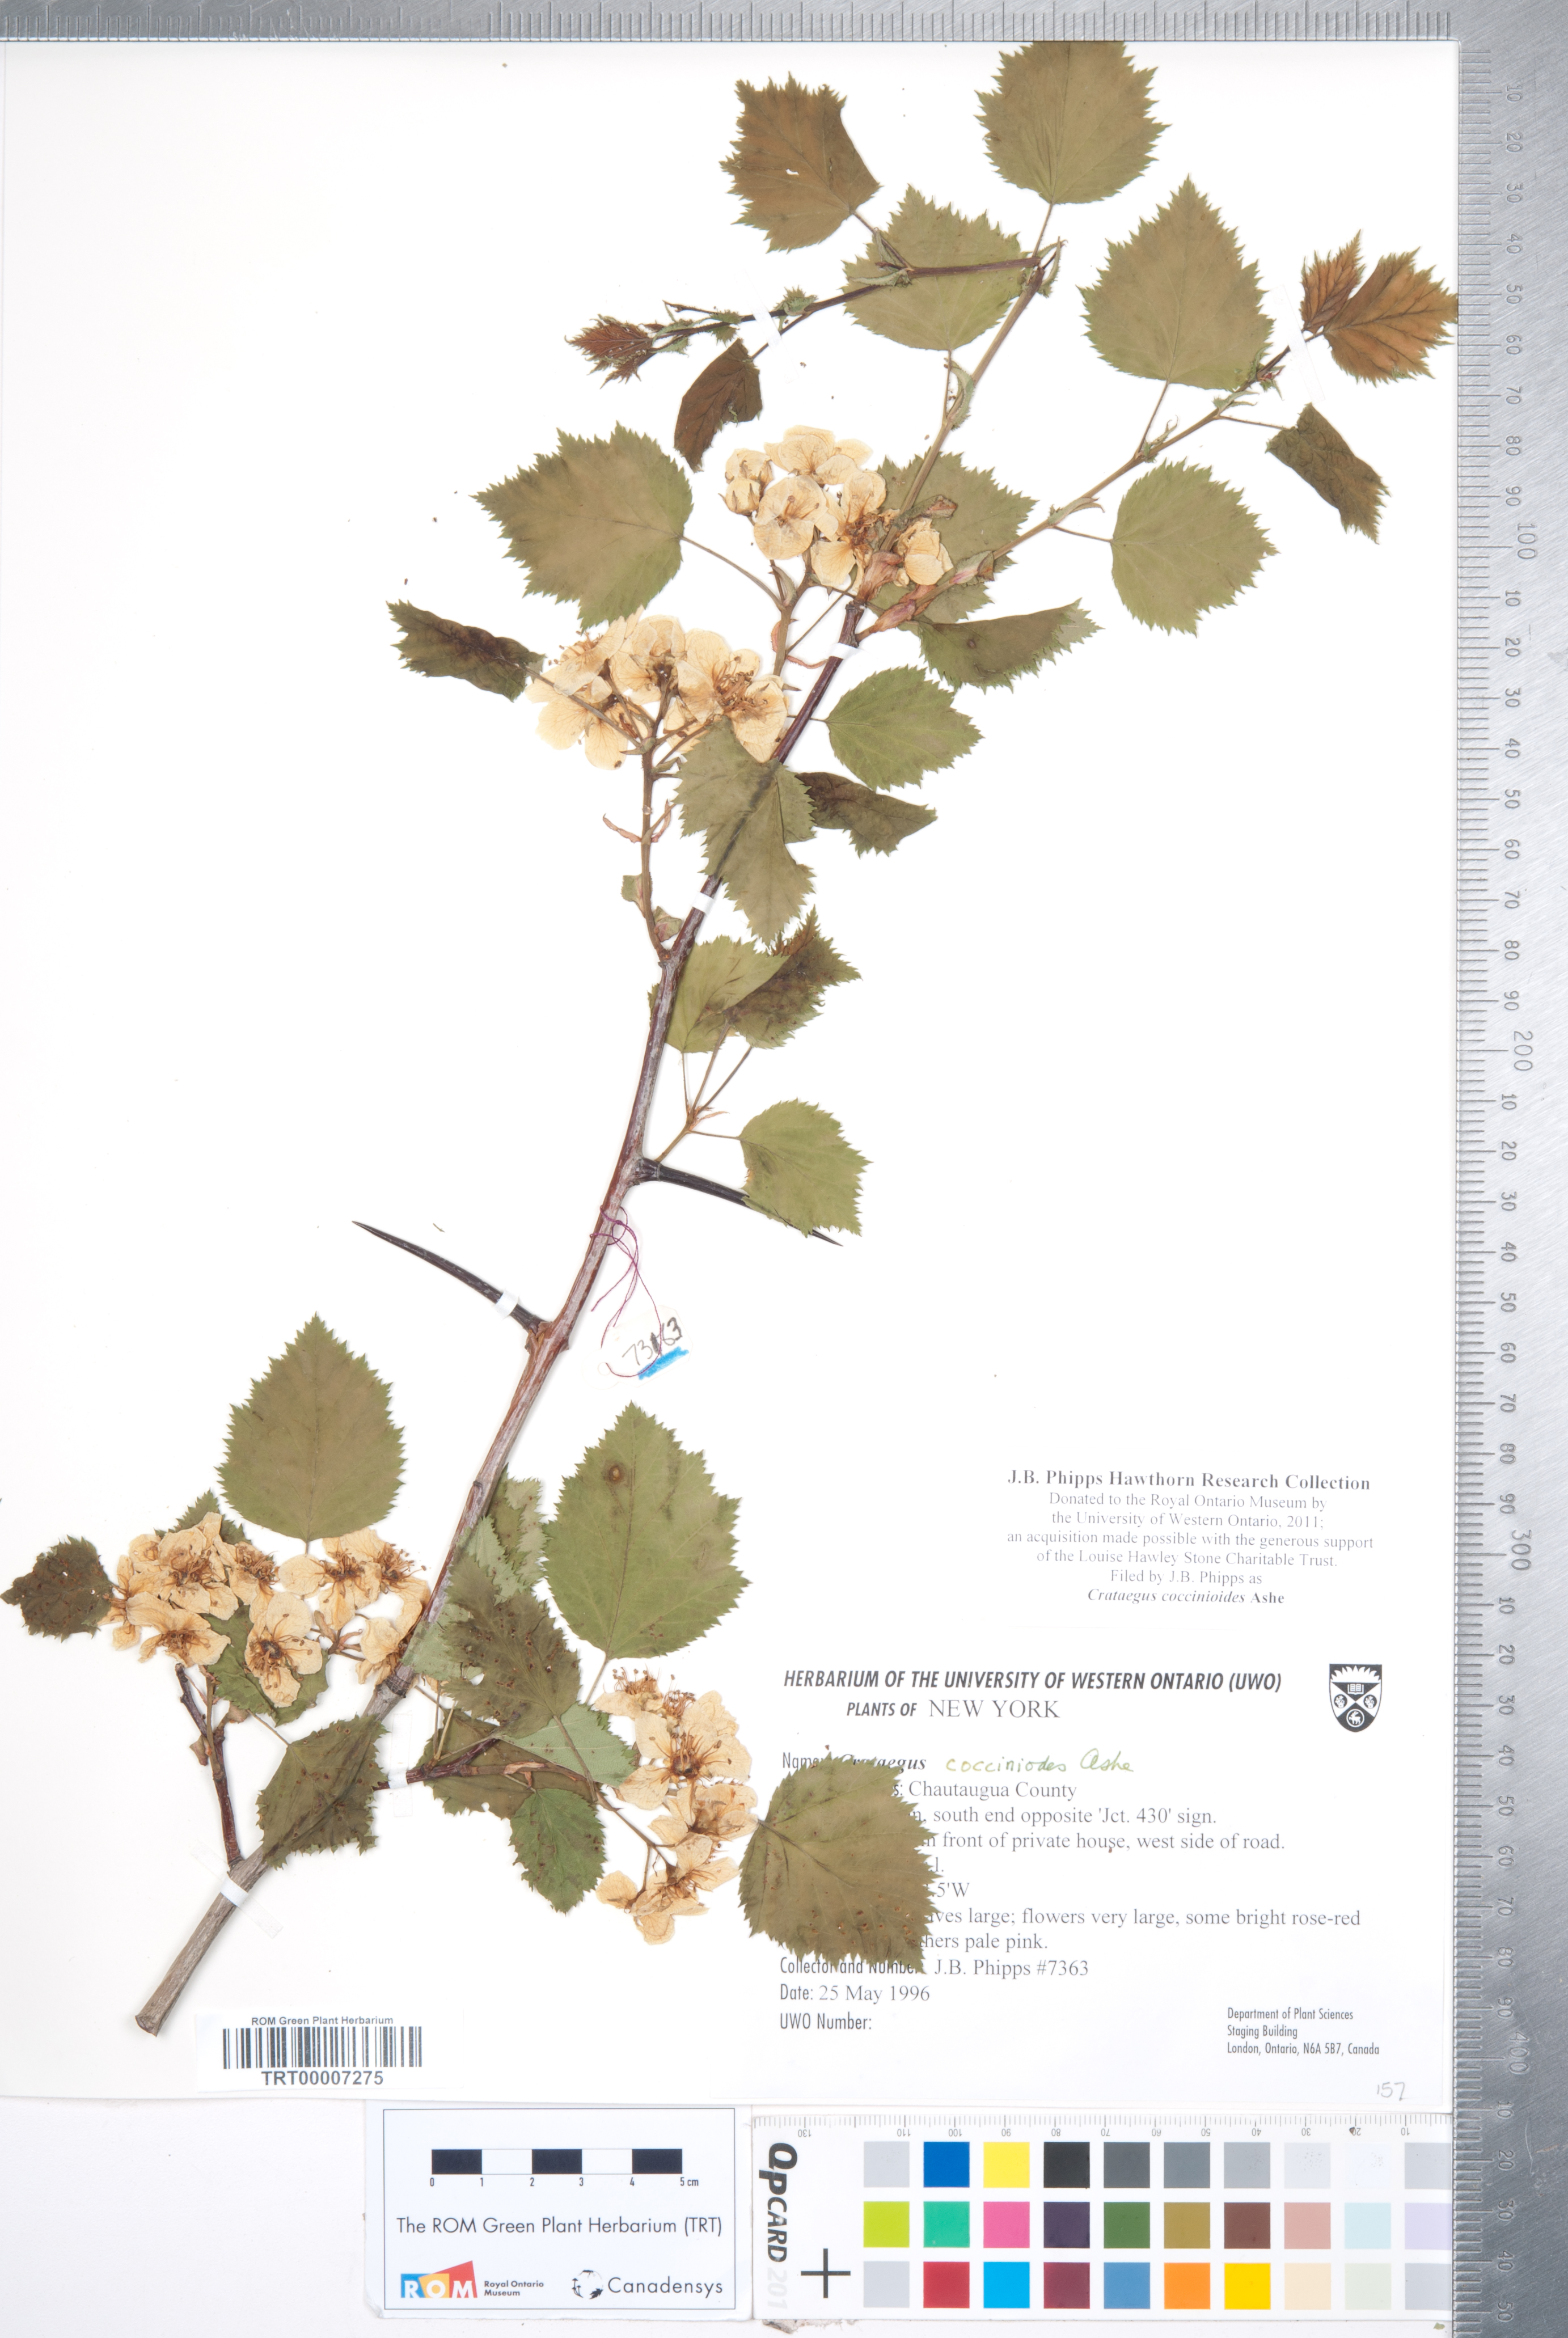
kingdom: Plantae
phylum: Tracheophyta
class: Magnoliopsida
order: Rosales
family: Rosaceae
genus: Crataegus
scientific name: Crataegus coccinioides
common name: Large-flowered cockspurthorn
